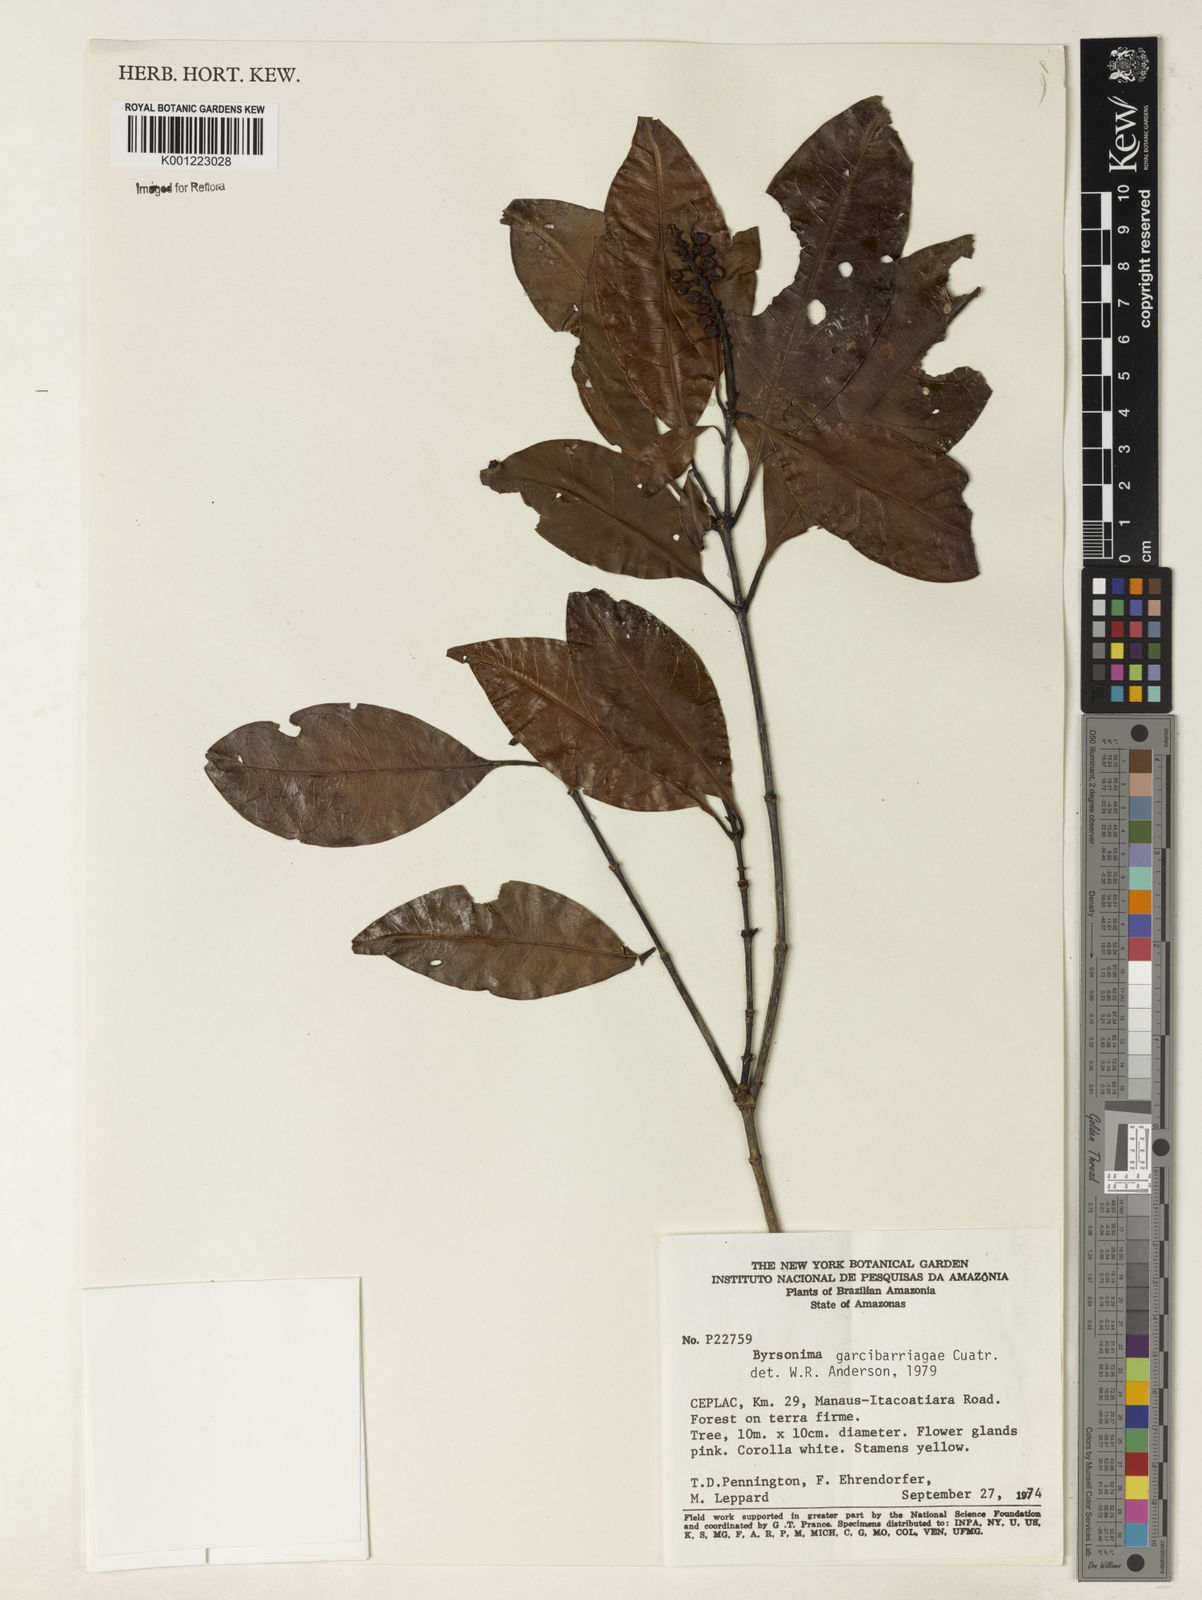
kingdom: Plantae
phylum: Tracheophyta
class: Magnoliopsida
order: Malpighiales
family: Malpighiaceae
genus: Byrsonima
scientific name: Byrsonima garcibarrigae
